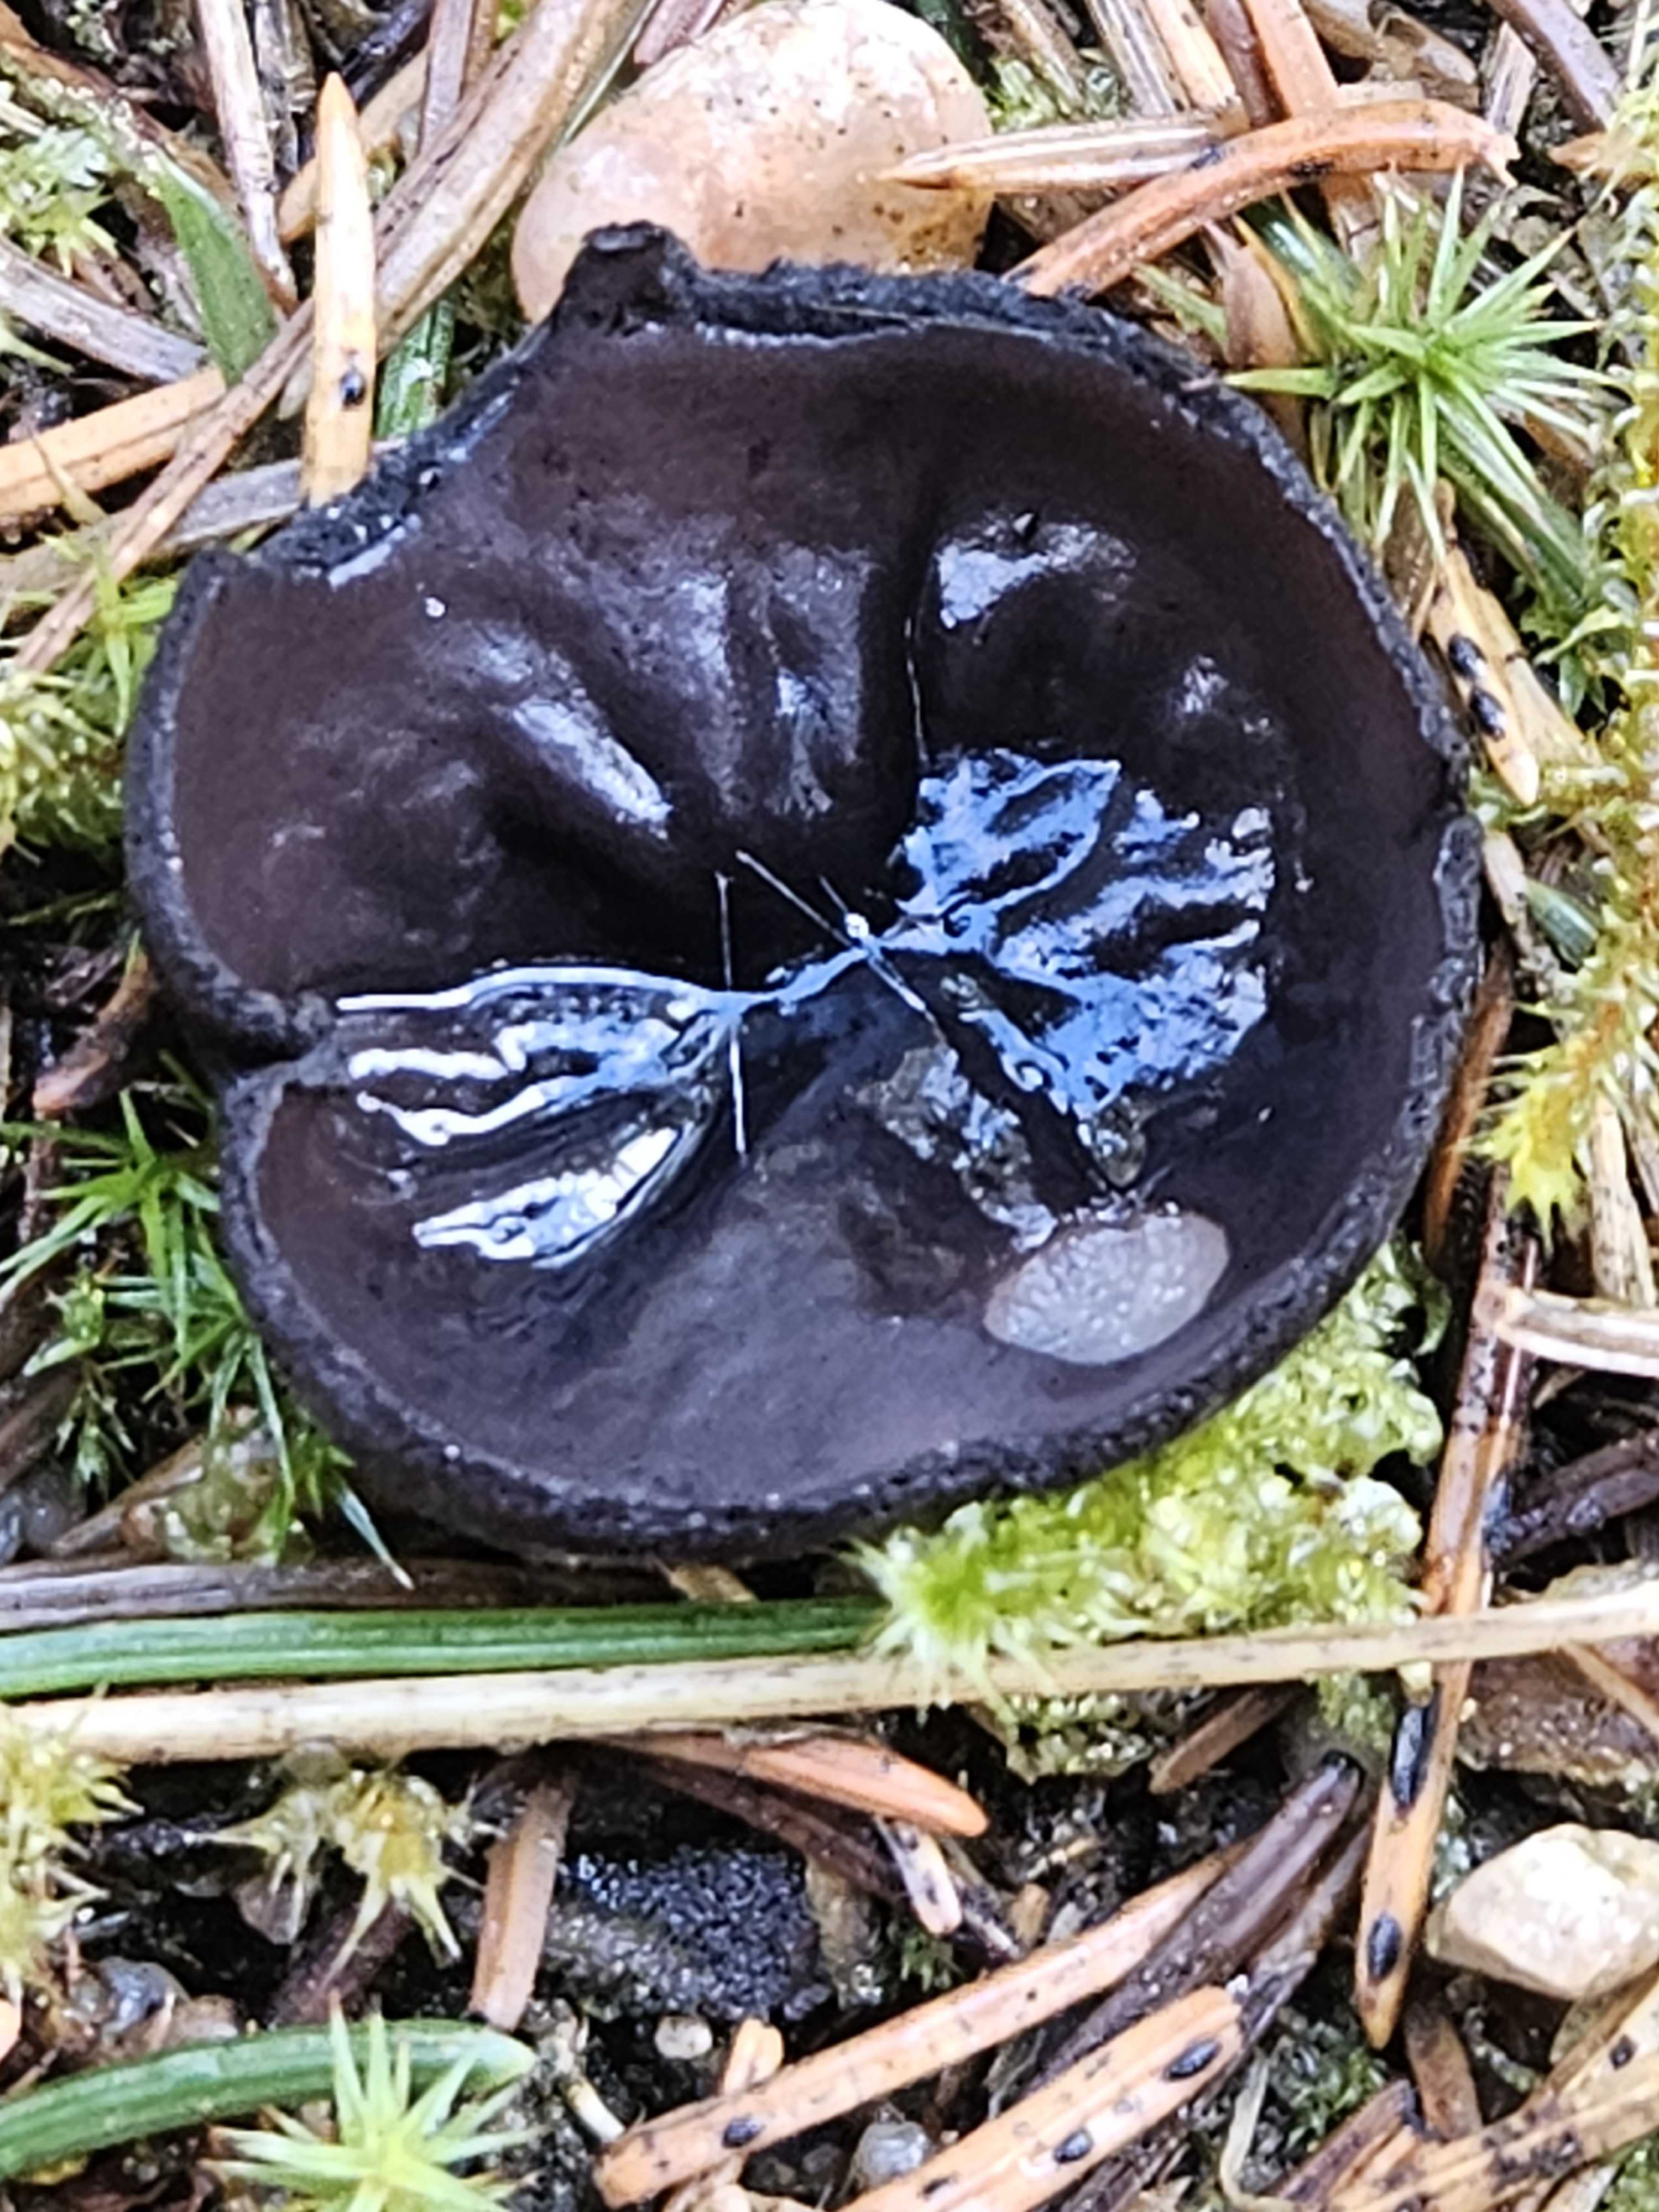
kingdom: Fungi
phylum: Ascomycota
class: Pezizomycetes
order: Pezizales
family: Sarcosomataceae
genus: Pseudoplectania
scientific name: Pseudoplectania nigrella
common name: almindelig sortbæger
